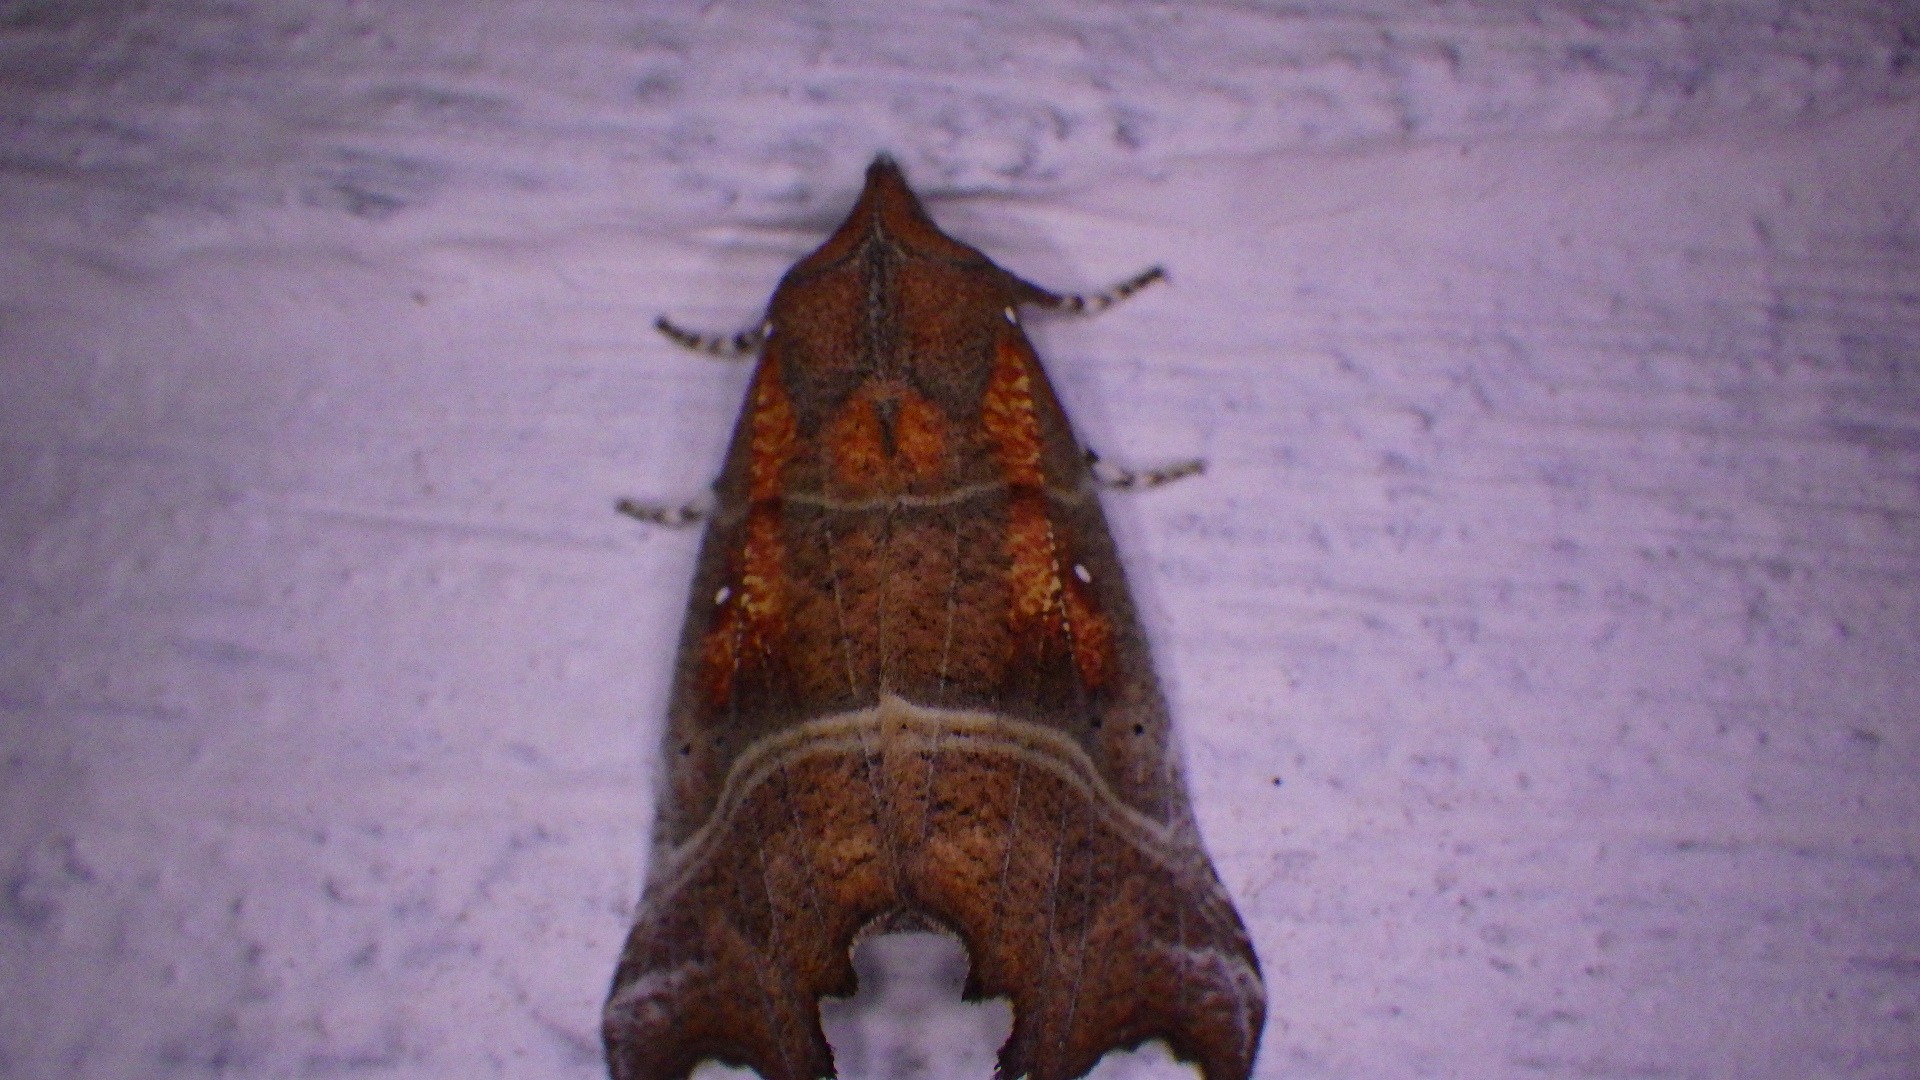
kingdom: Animalia
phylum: Arthropoda
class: Insecta
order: Lepidoptera
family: Erebidae
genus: Scoliopteryx
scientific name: Scoliopteryx libatrix
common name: Husmoderugle
